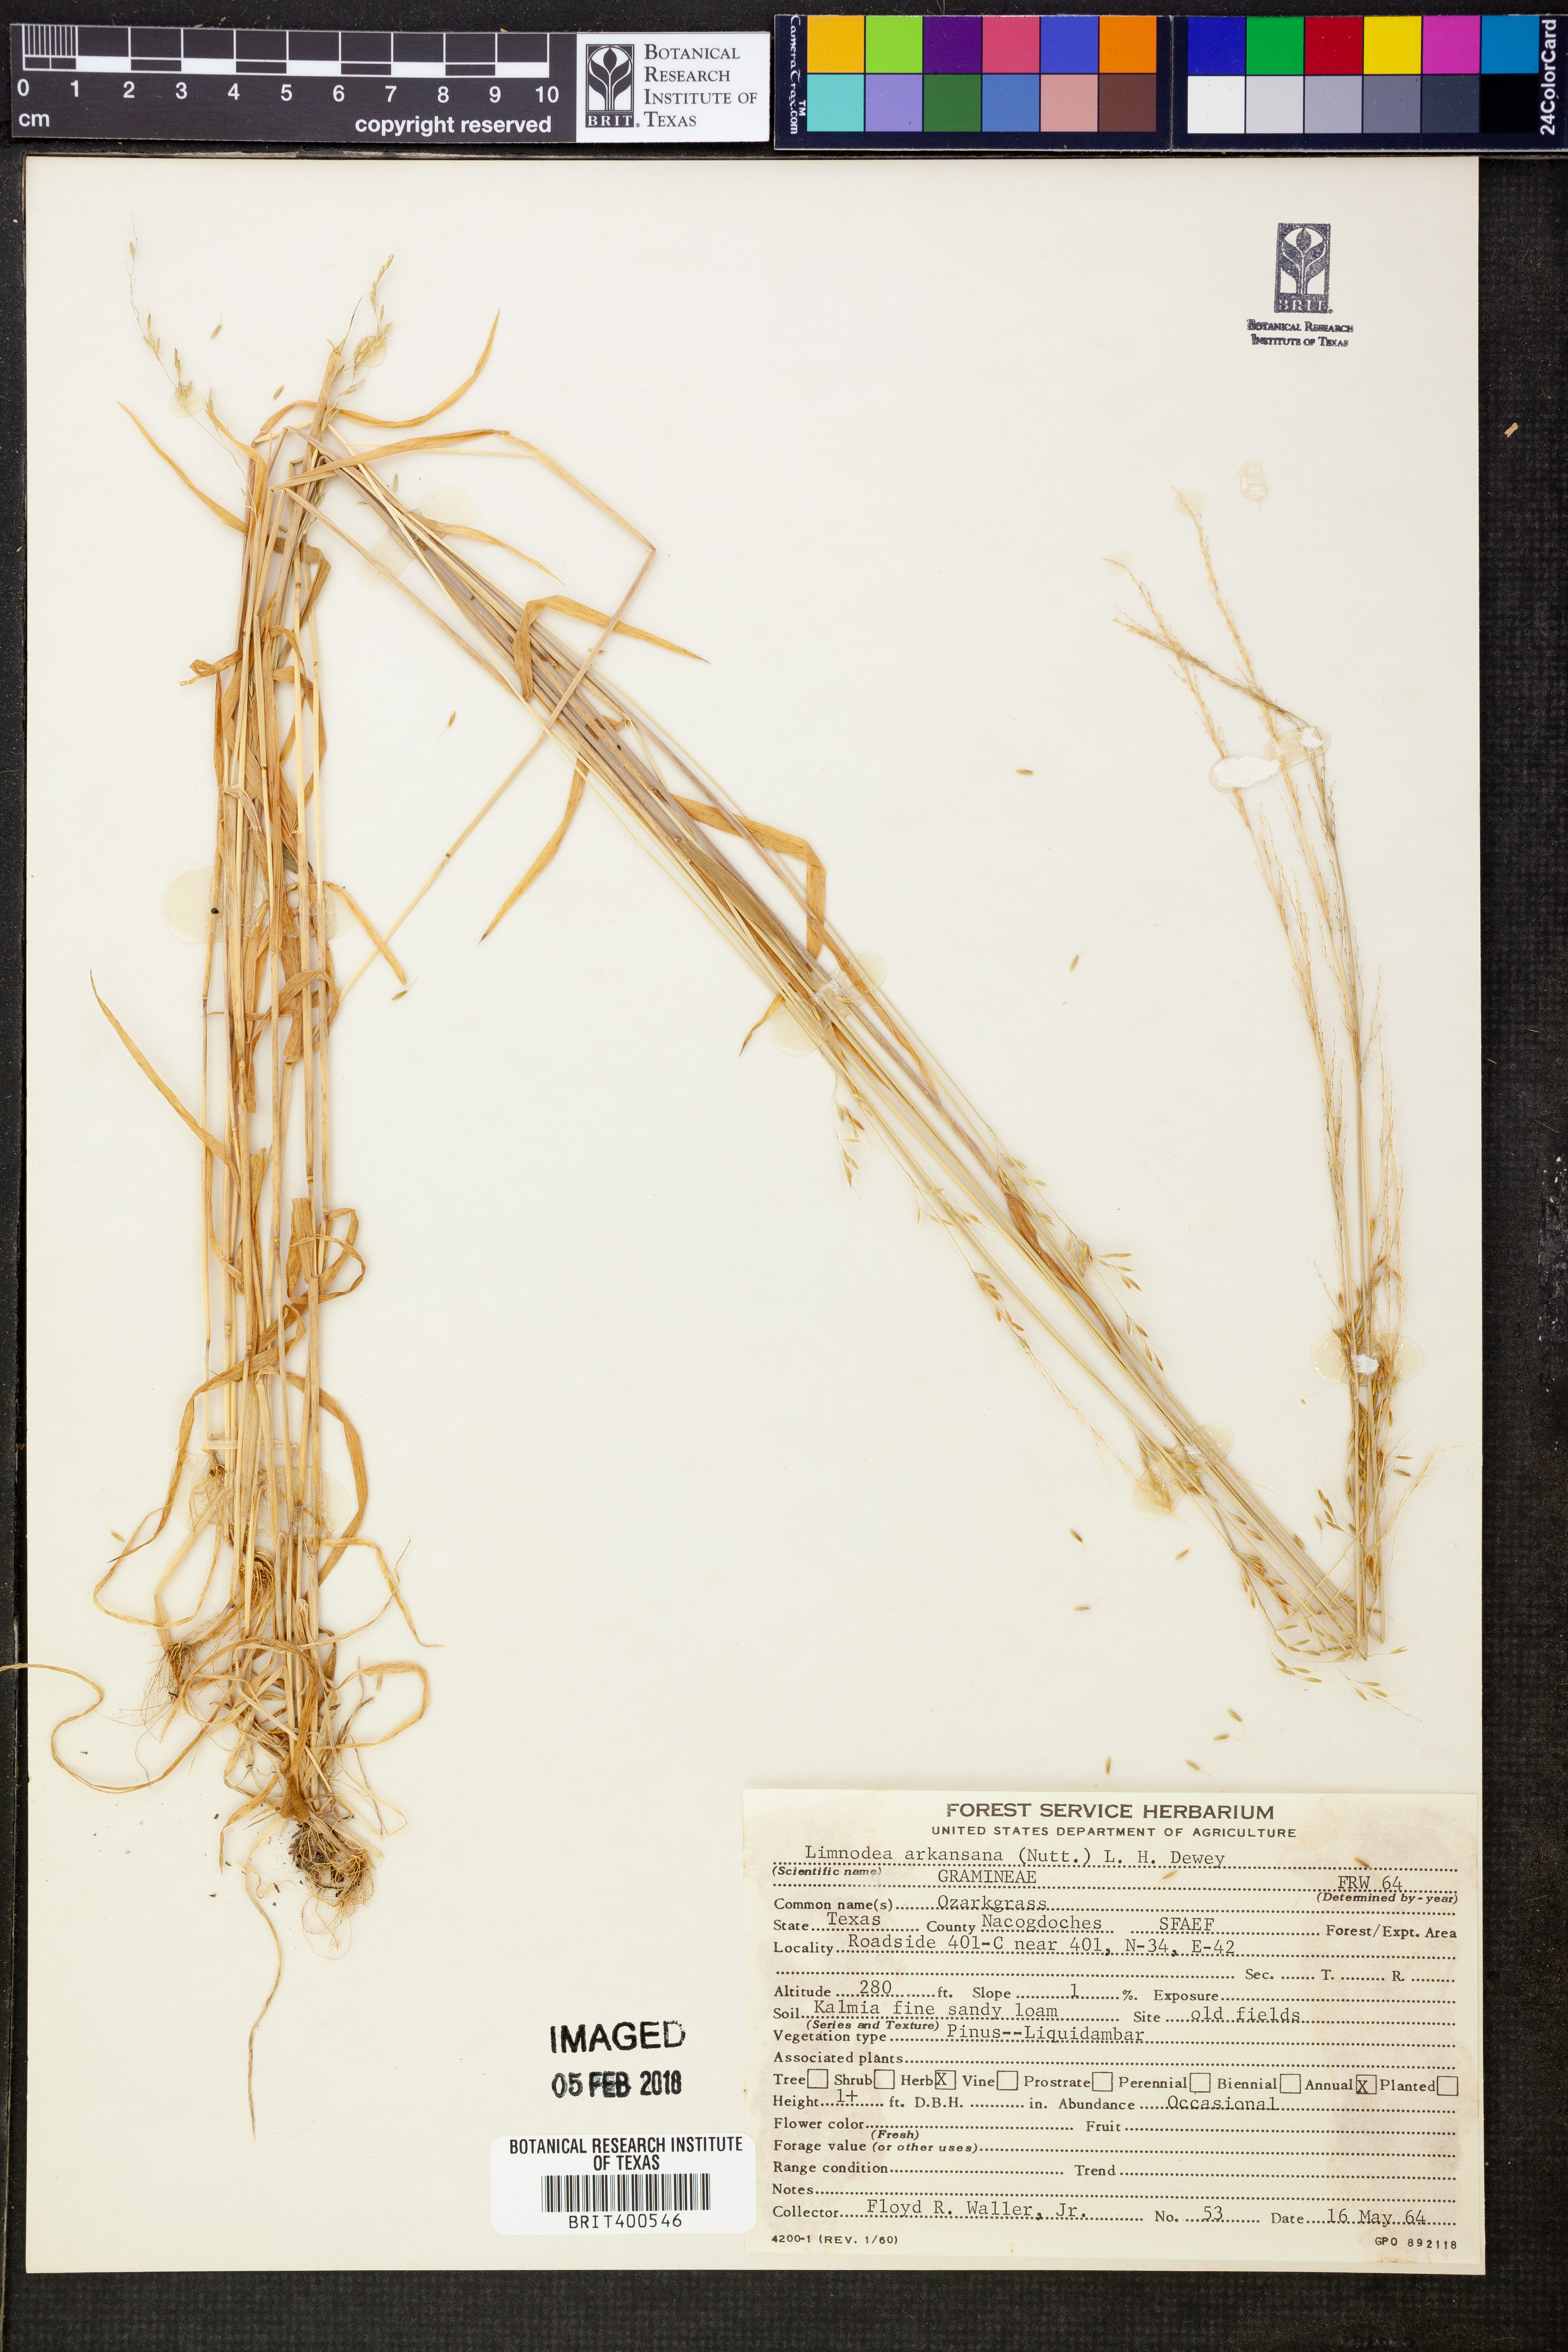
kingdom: Plantae
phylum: Tracheophyta
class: Liliopsida
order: Poales
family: Poaceae
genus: Limnodea
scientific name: Limnodea arkansana
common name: Ozark-grass
